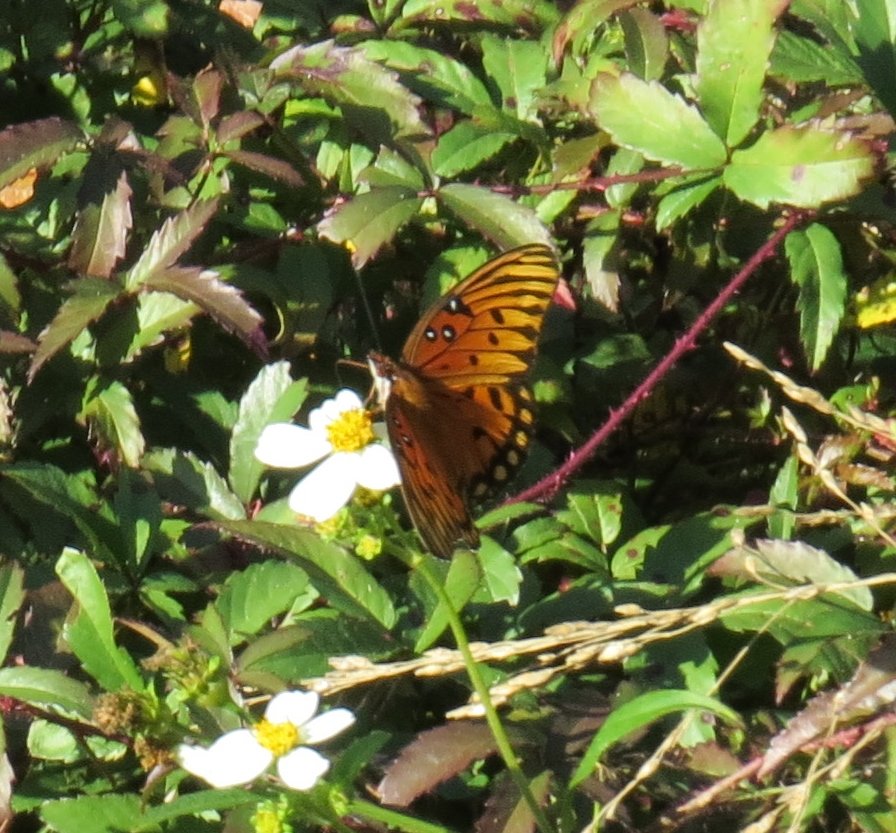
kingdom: Animalia
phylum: Arthropoda
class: Insecta
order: Lepidoptera
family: Nymphalidae
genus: Dione
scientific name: Dione vanillae
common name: Gulf Fritillary
